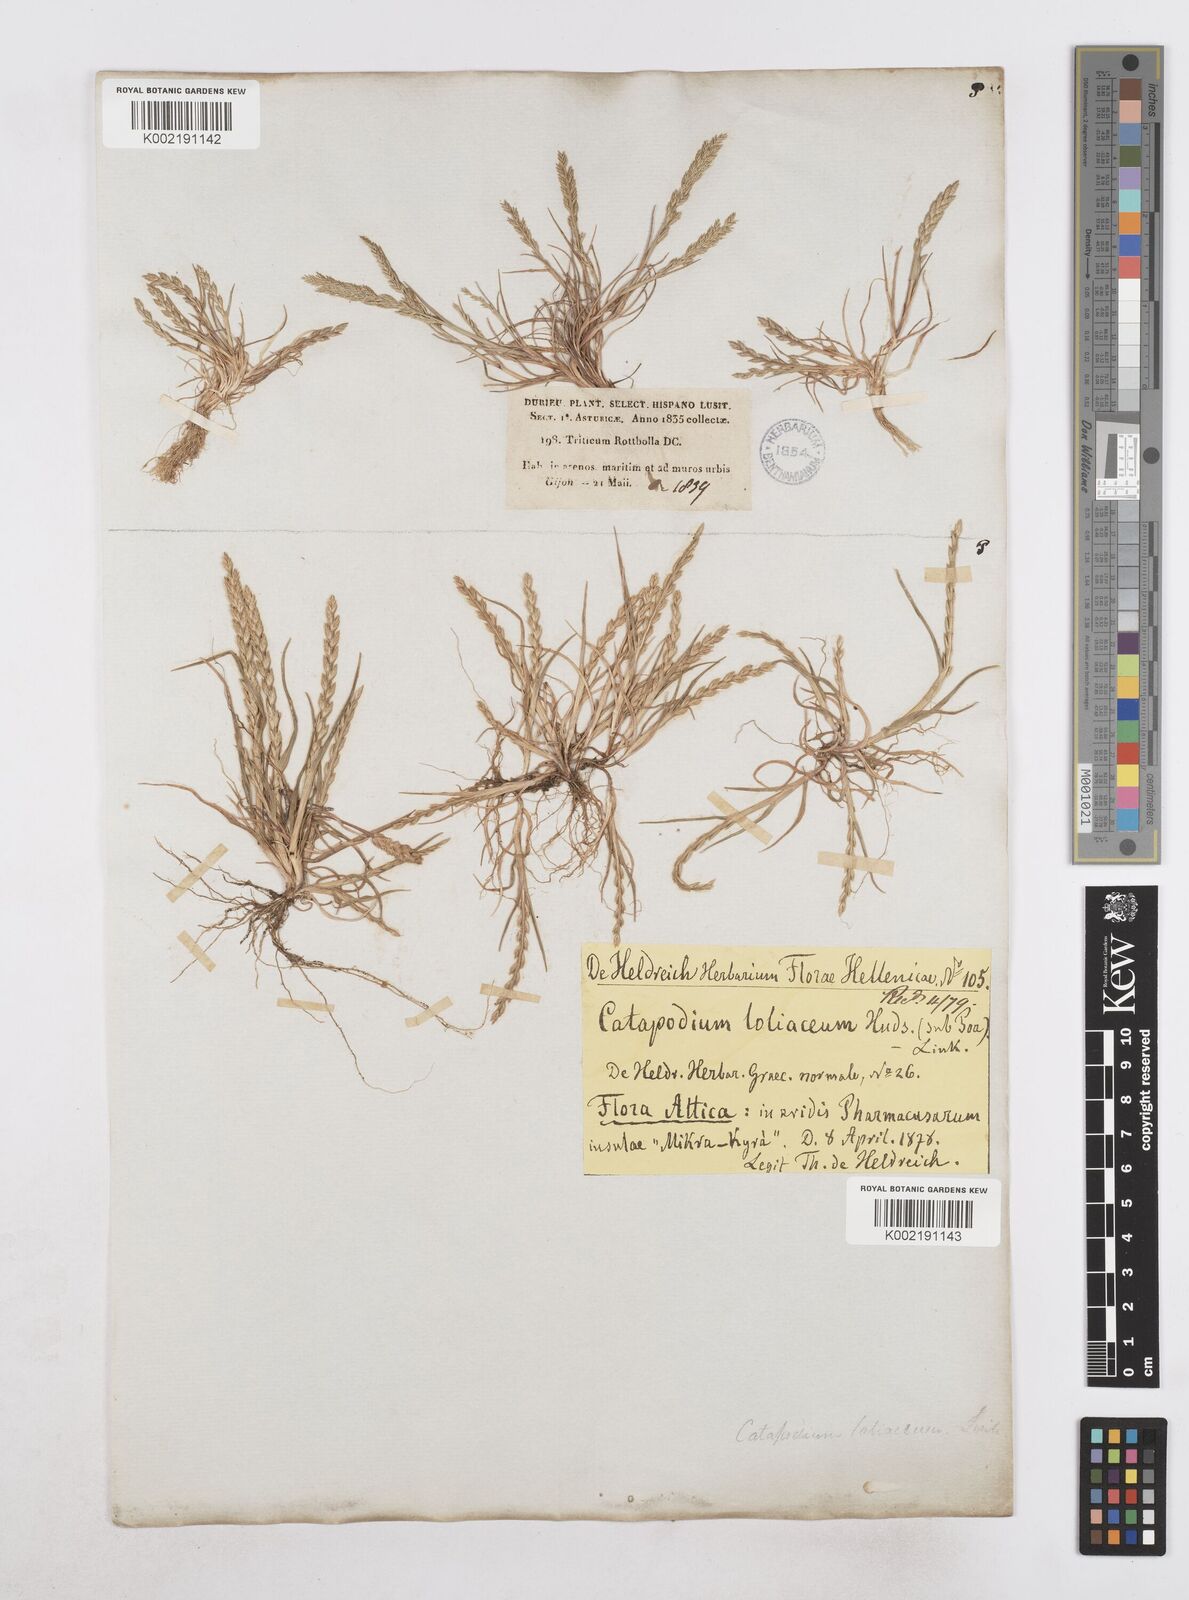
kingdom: Plantae
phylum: Tracheophyta
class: Liliopsida
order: Poales
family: Poaceae
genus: Catapodium
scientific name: Catapodium marinum
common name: Sea fern-grass
